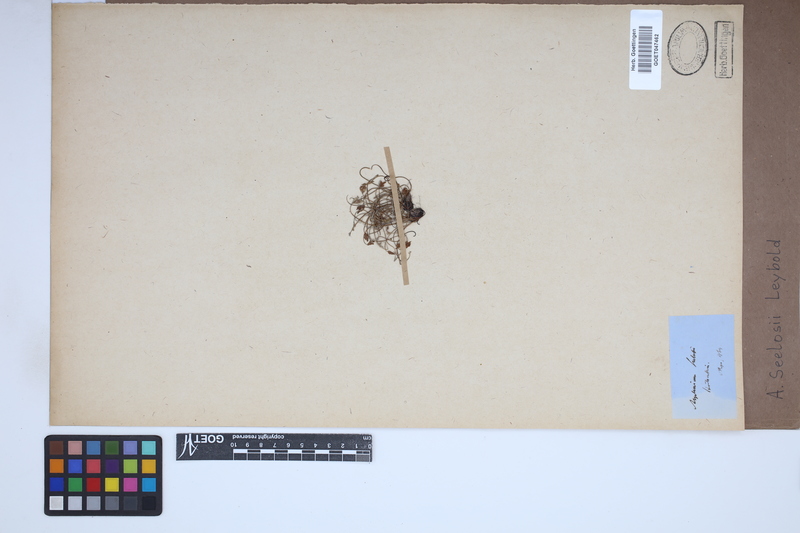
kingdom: Plantae
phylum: Tracheophyta
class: Polypodiopsida
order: Polypodiales
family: Aspleniaceae
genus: Asplenium
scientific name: Asplenium seelosii
